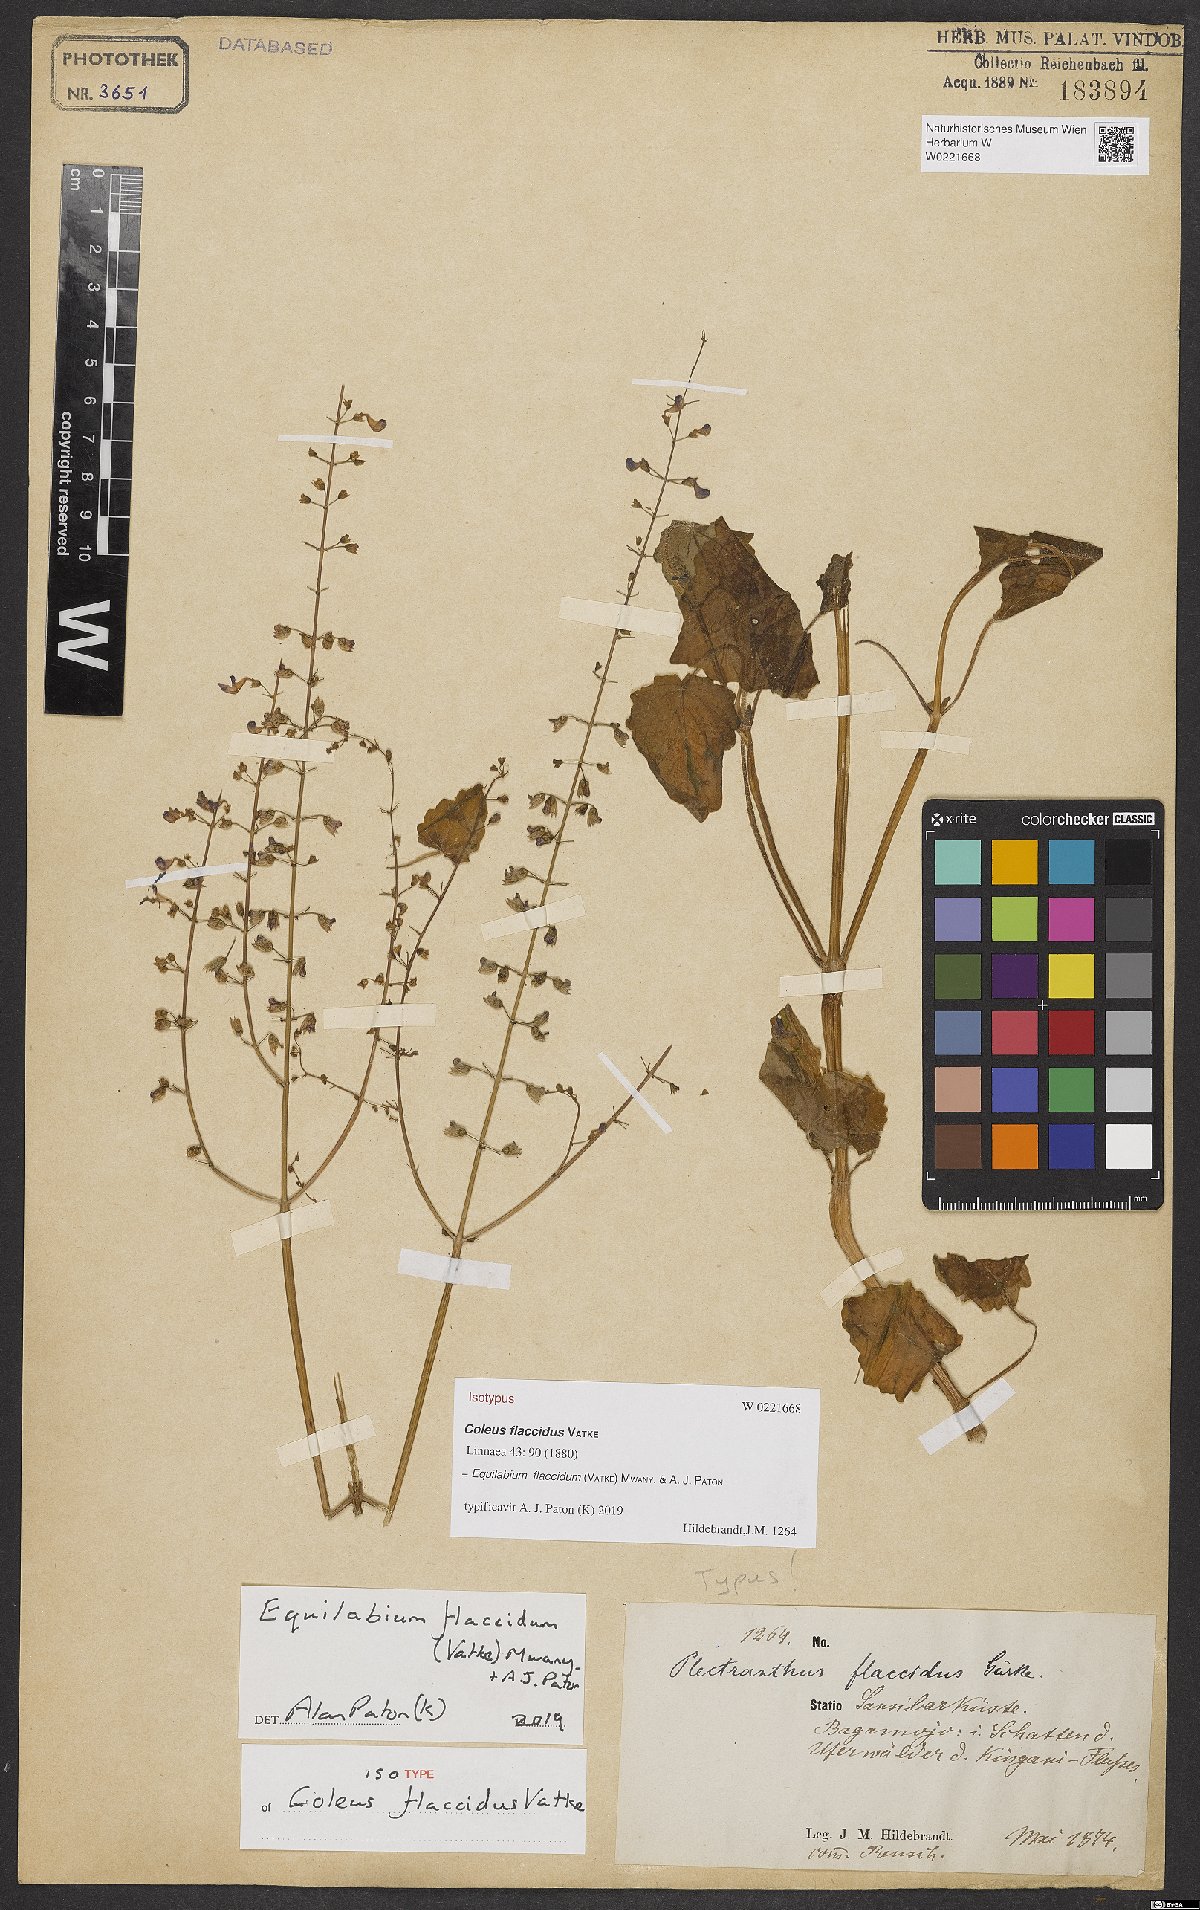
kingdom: Plantae
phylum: Tracheophyta
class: Magnoliopsida
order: Lamiales
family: Lamiaceae
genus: Equilabium
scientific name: Equilabium flaccidum
